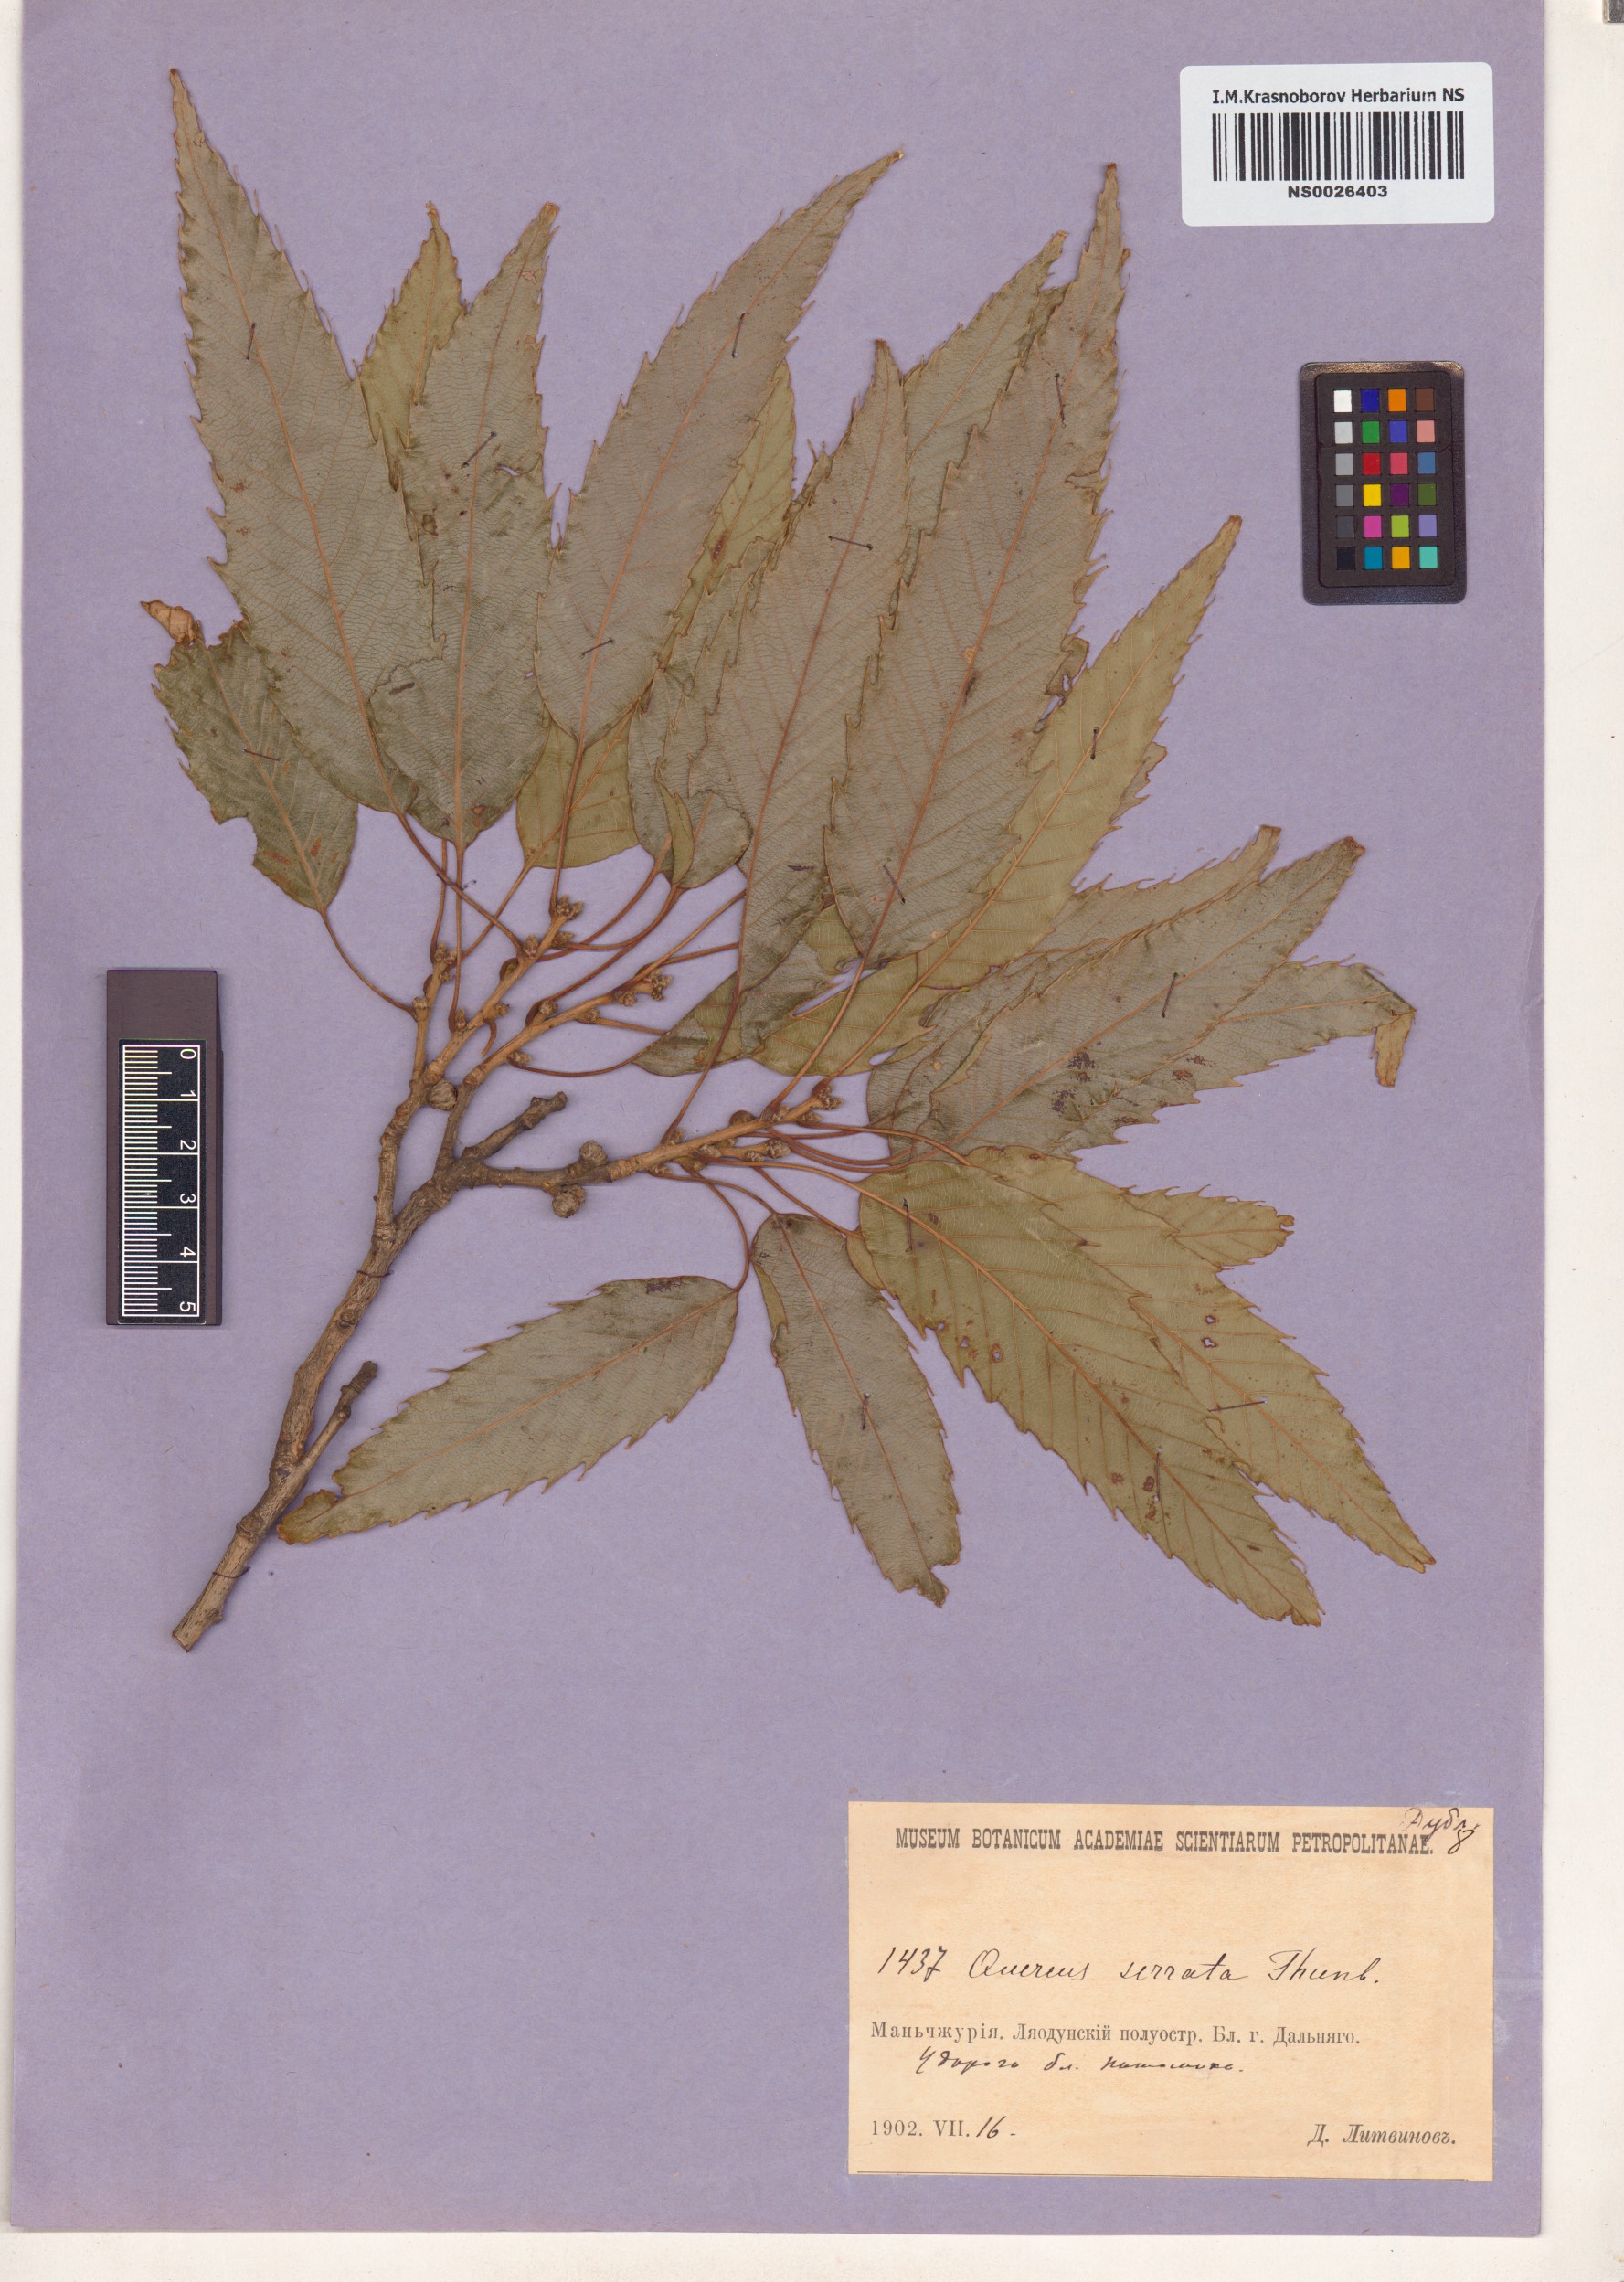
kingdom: Plantae
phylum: Tracheophyta
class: Magnoliopsida
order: Fagales
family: Fagaceae
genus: Quercus
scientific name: Quercus serrata
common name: Bao li
